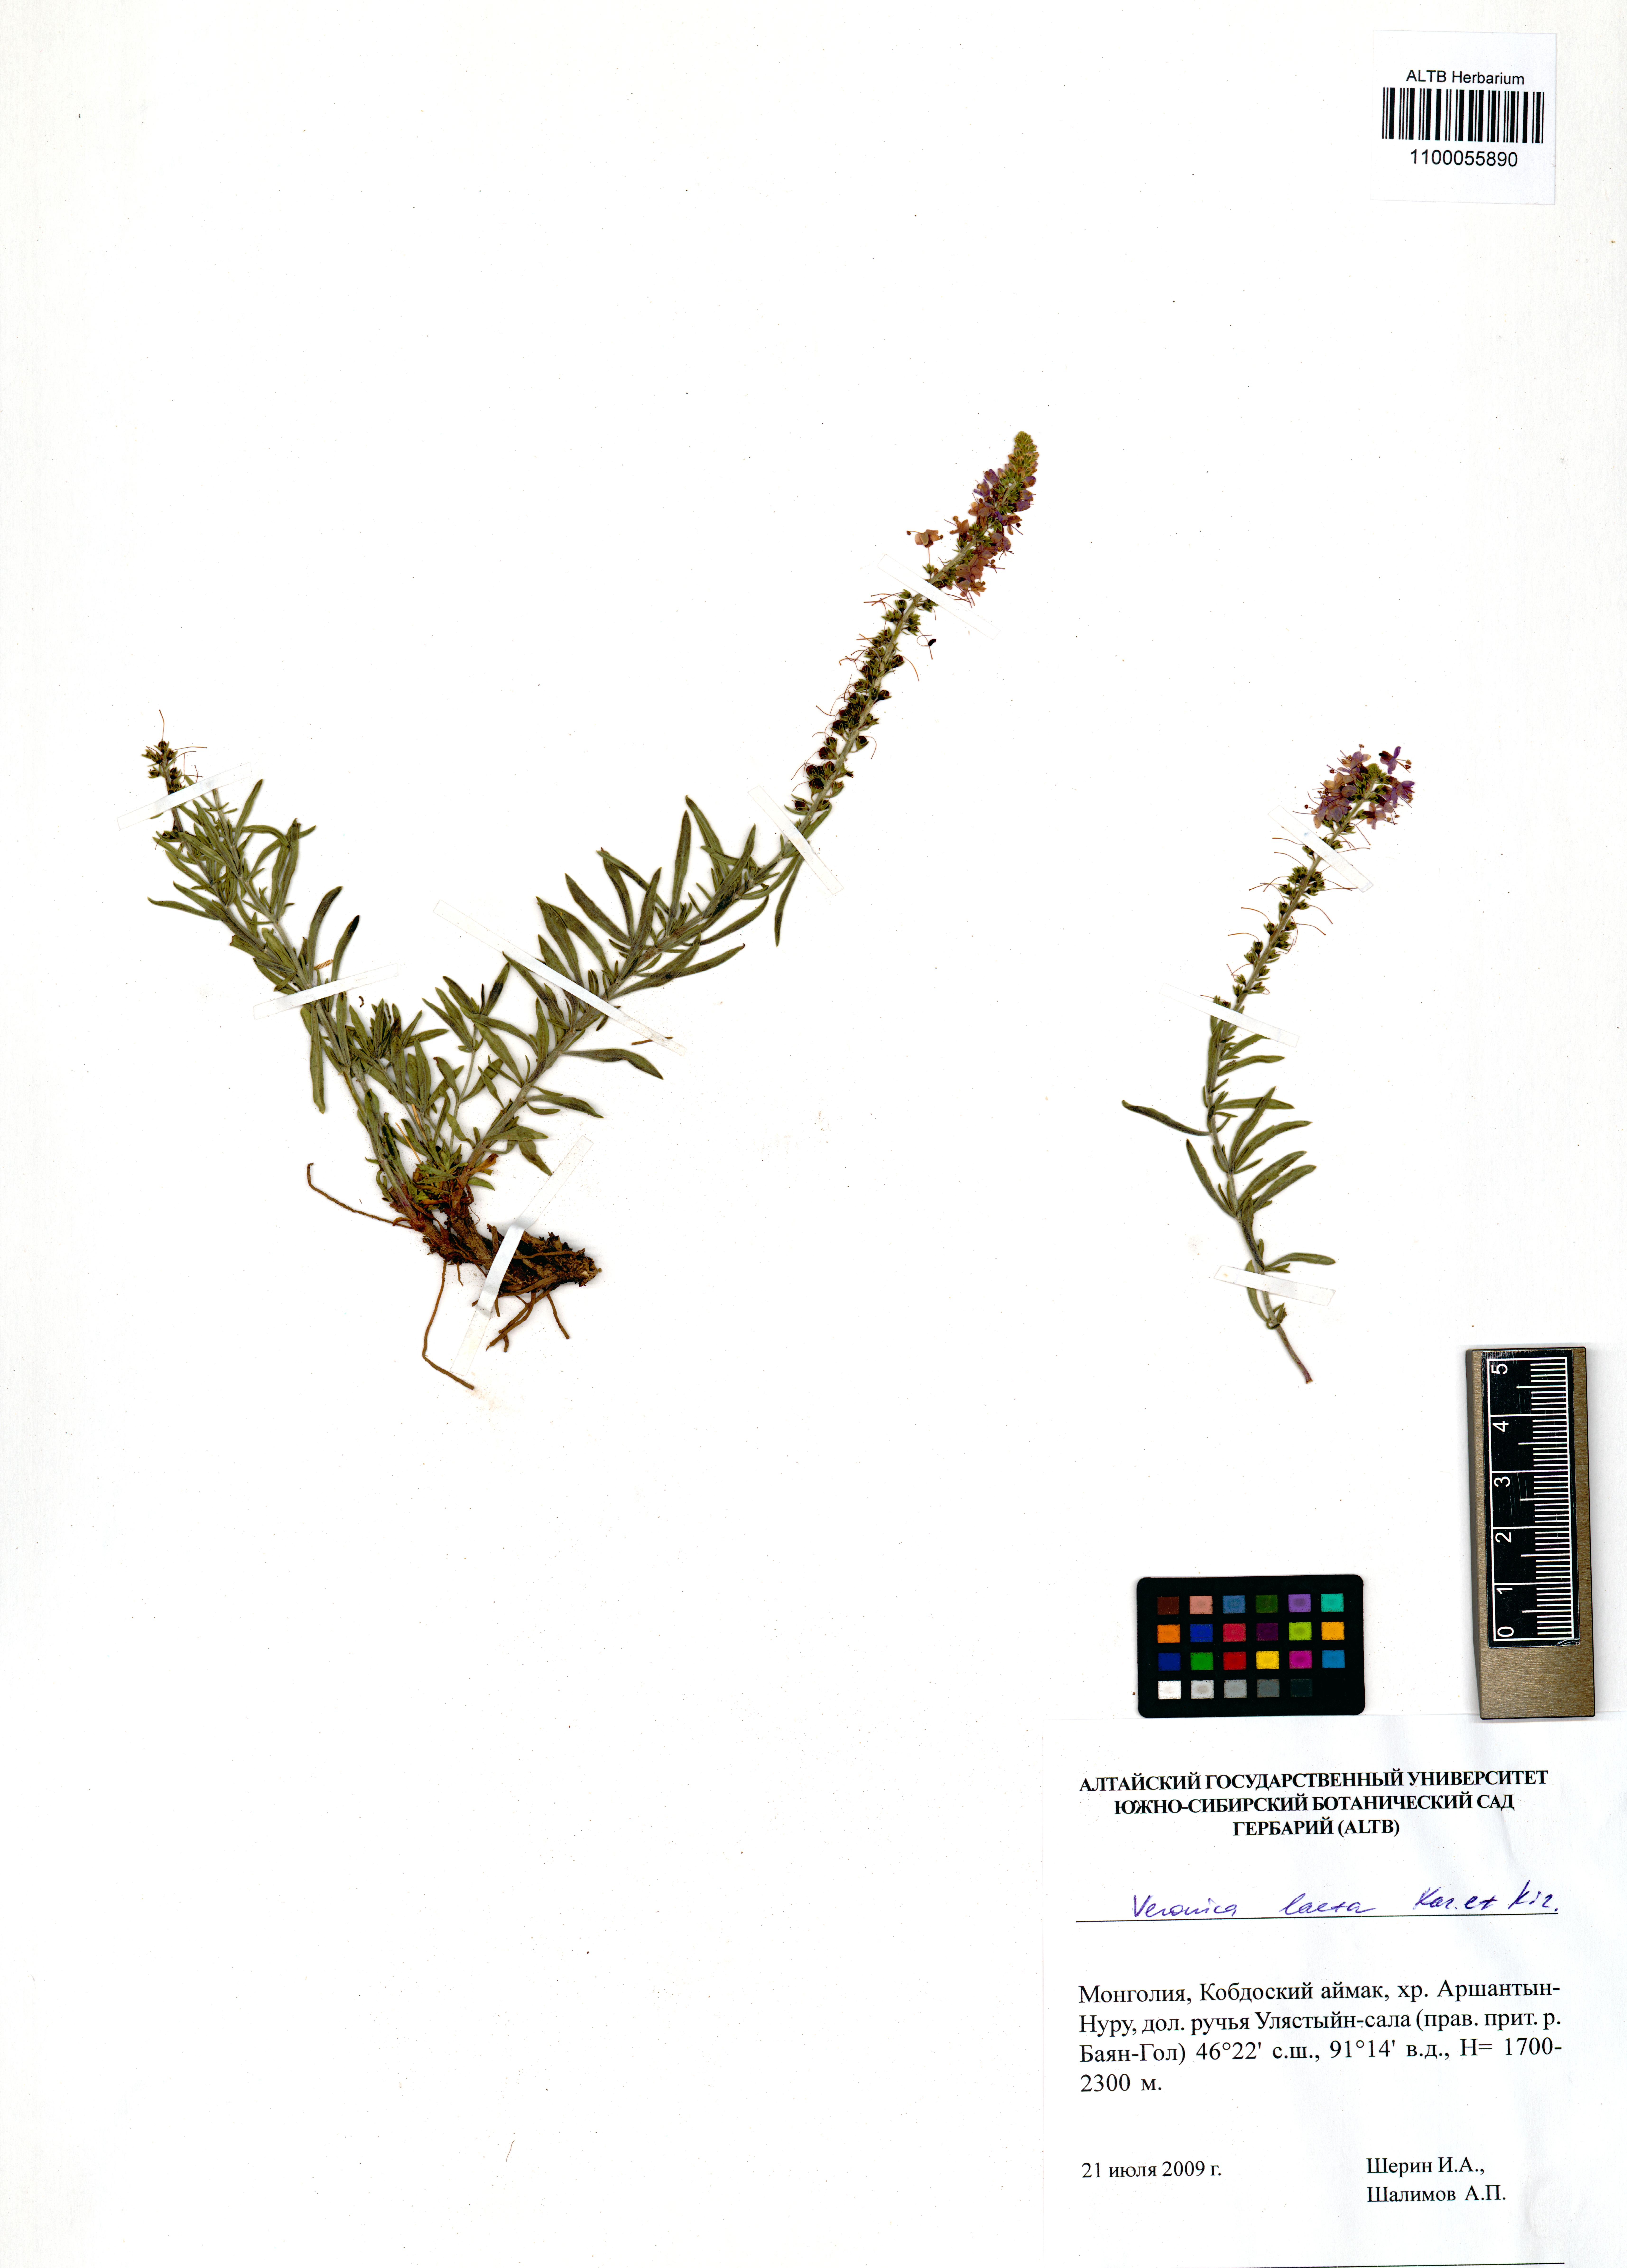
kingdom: Plantae
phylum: Tracheophyta
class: Magnoliopsida
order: Lamiales
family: Plantaginaceae
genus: Veronica
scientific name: Veronica laeta
